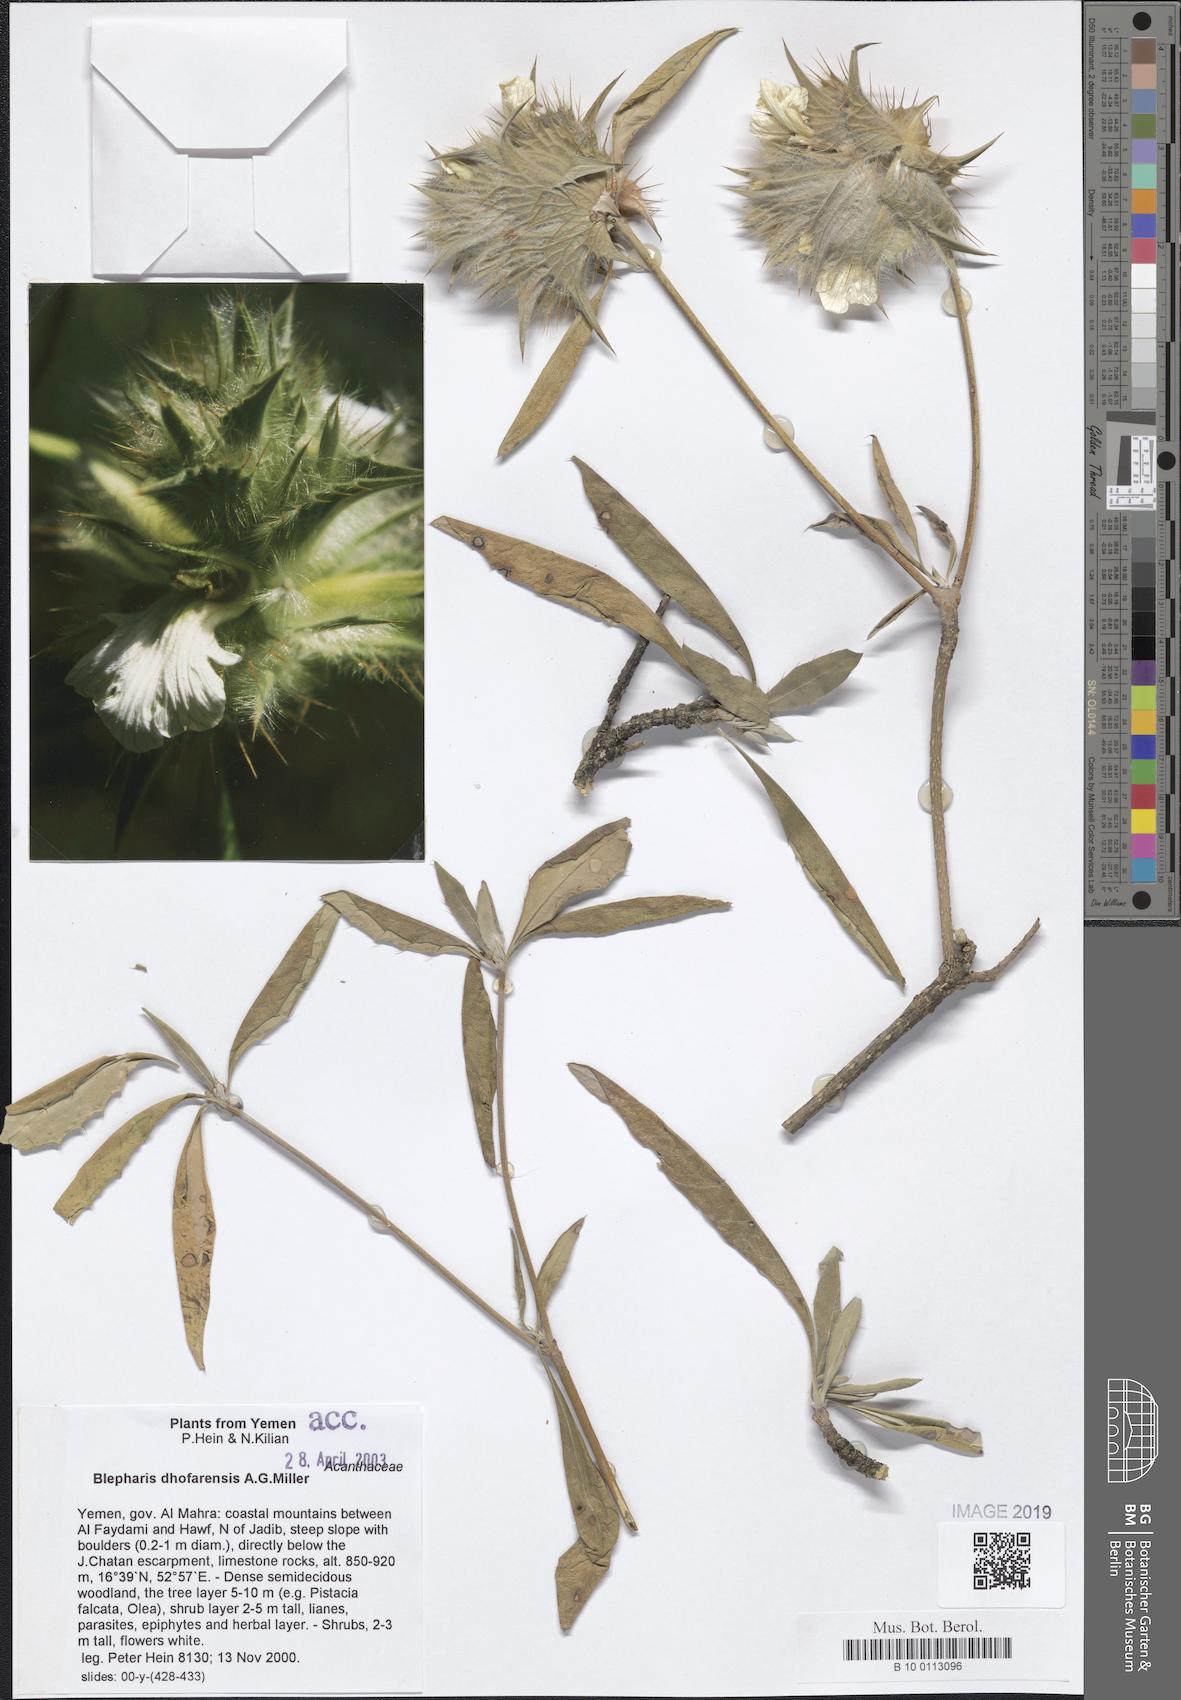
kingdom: Plantae
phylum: Tracheophyta
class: Magnoliopsida
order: Lamiales
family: Acanthaceae
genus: Blepharis
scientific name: Blepharis dhofarensis
